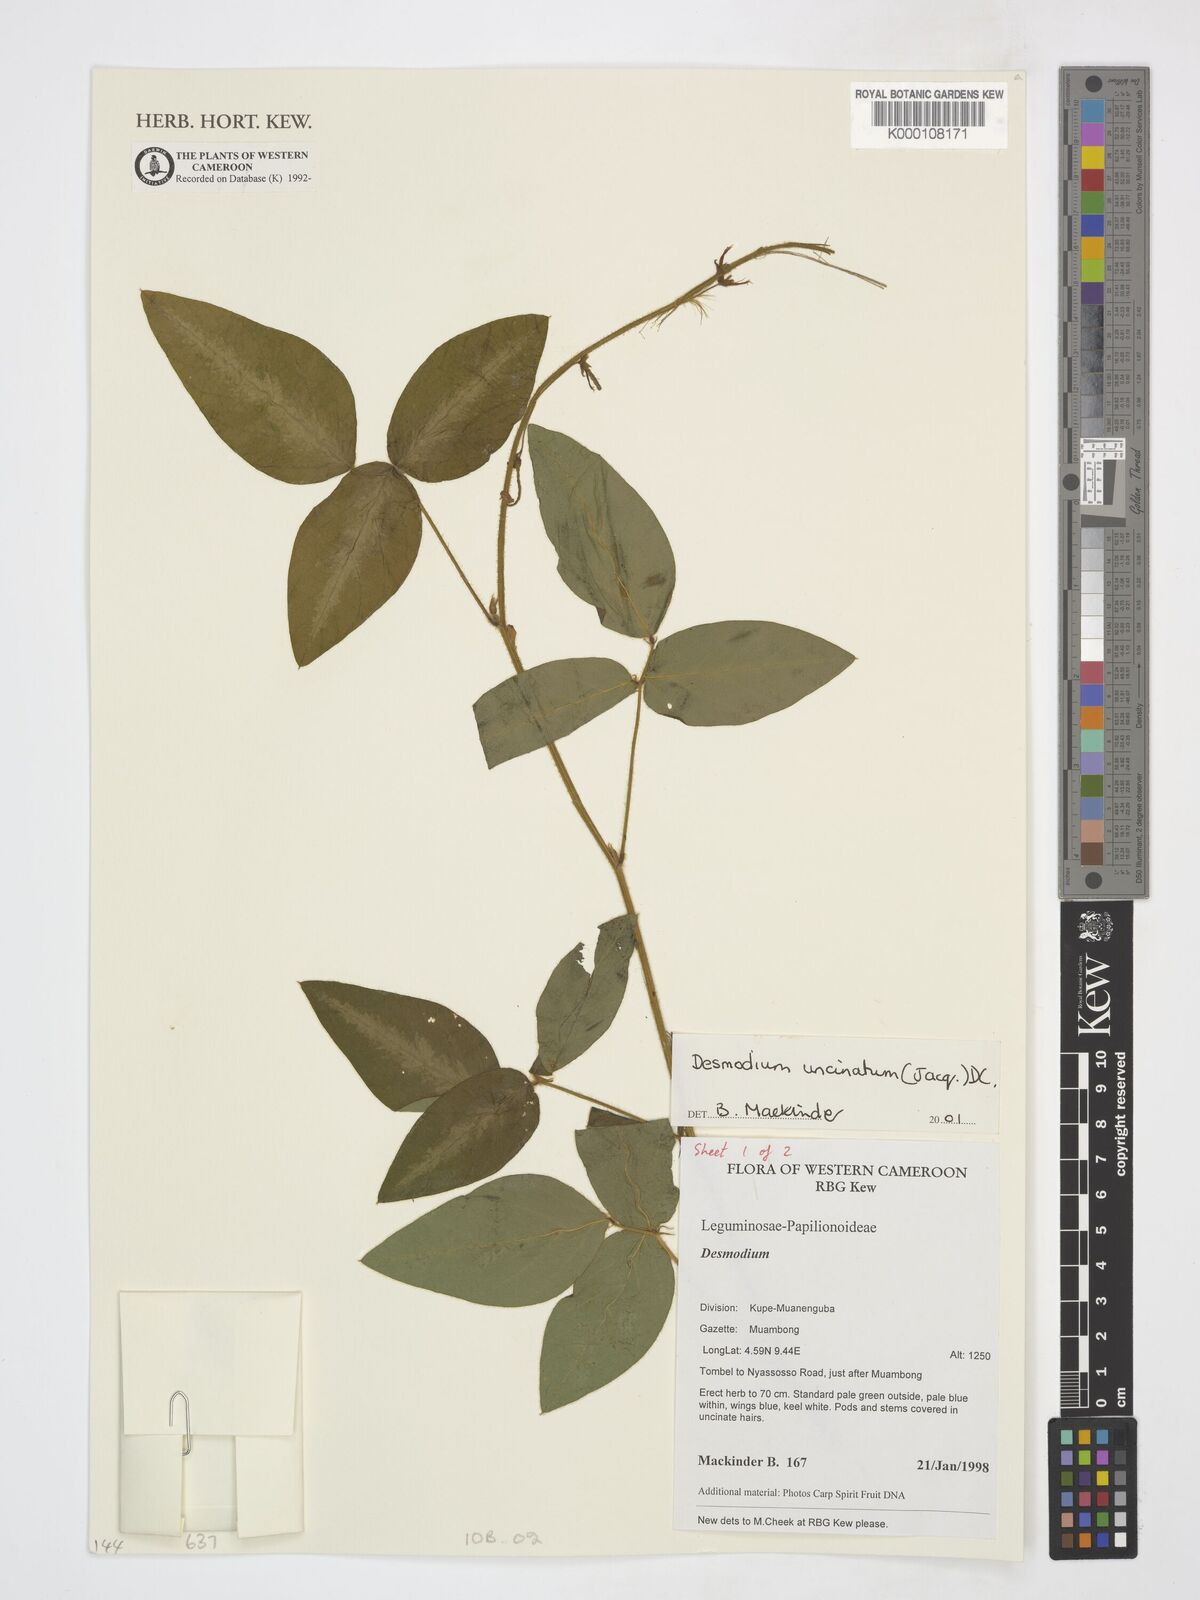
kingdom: Plantae
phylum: Tracheophyta
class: Magnoliopsida
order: Fabales
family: Fabaceae
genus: Desmodium
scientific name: Desmodium uncinatum
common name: Silverleaf desmodium
